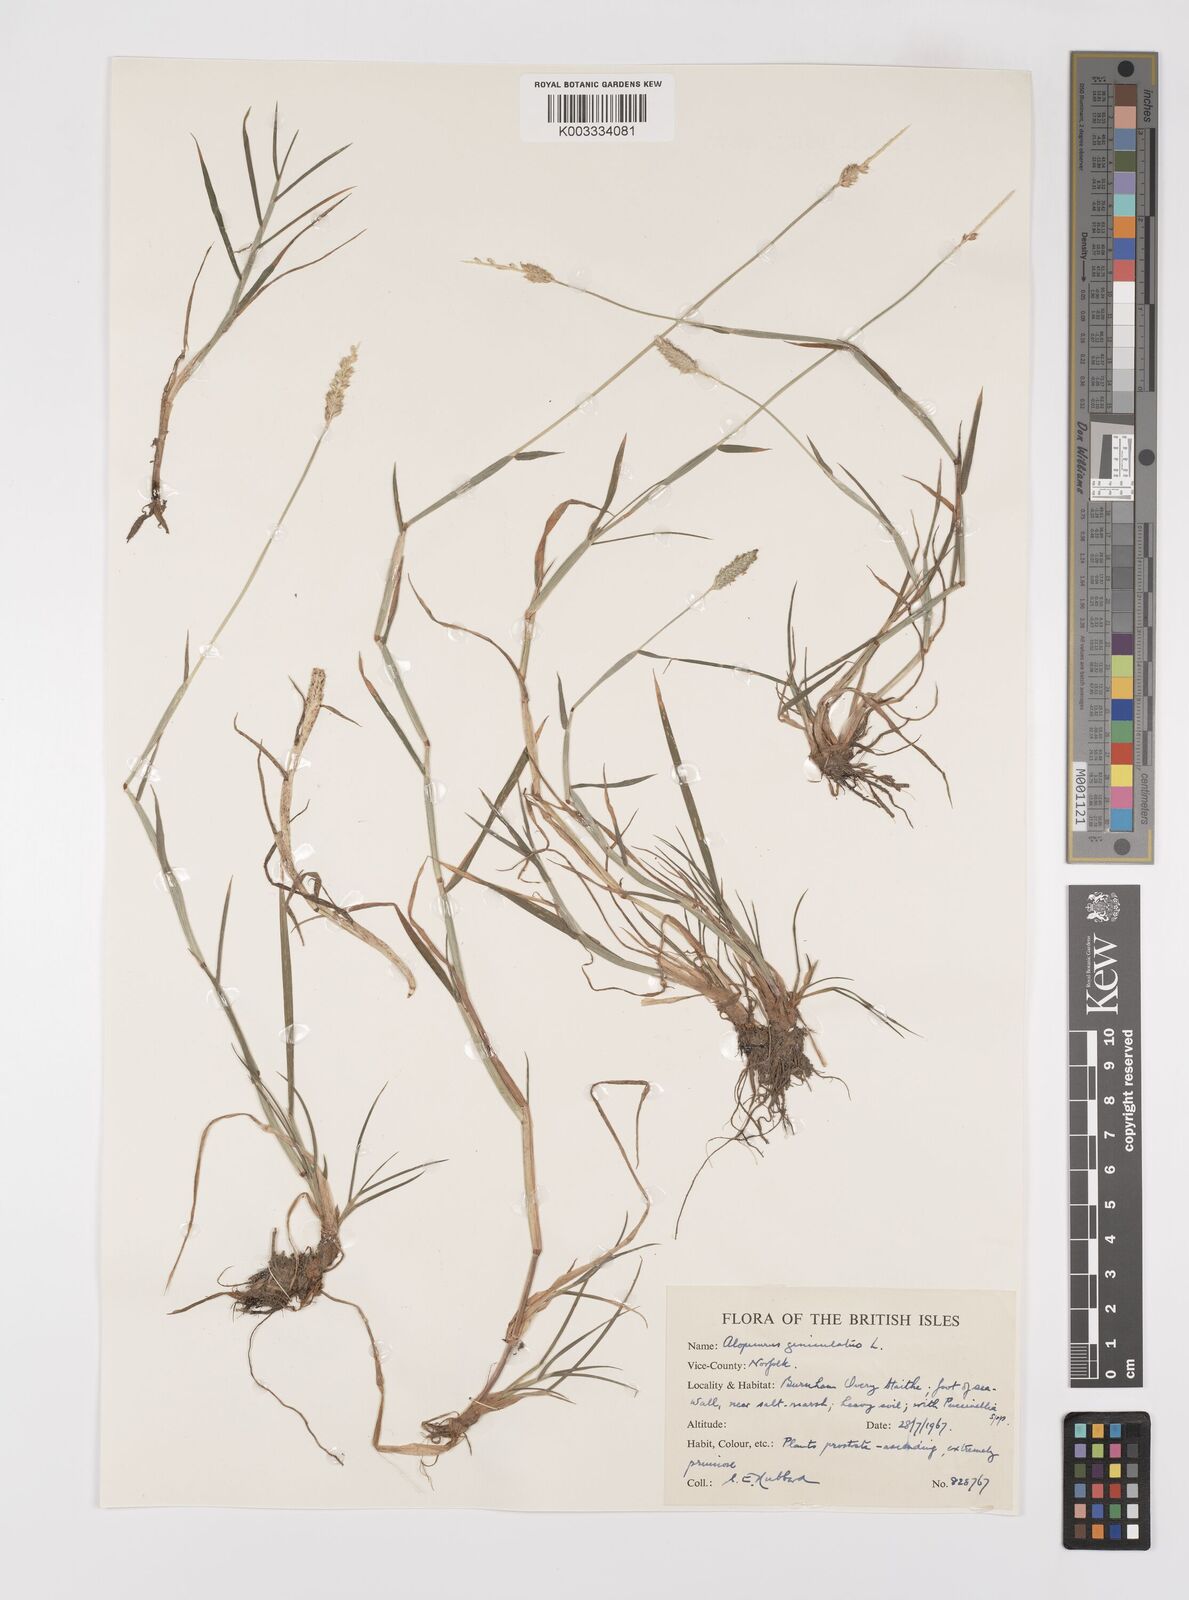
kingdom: Plantae
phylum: Tracheophyta
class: Liliopsida
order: Poales
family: Poaceae
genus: Alopecurus
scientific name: Alopecurus geniculatus
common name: Water foxtail
